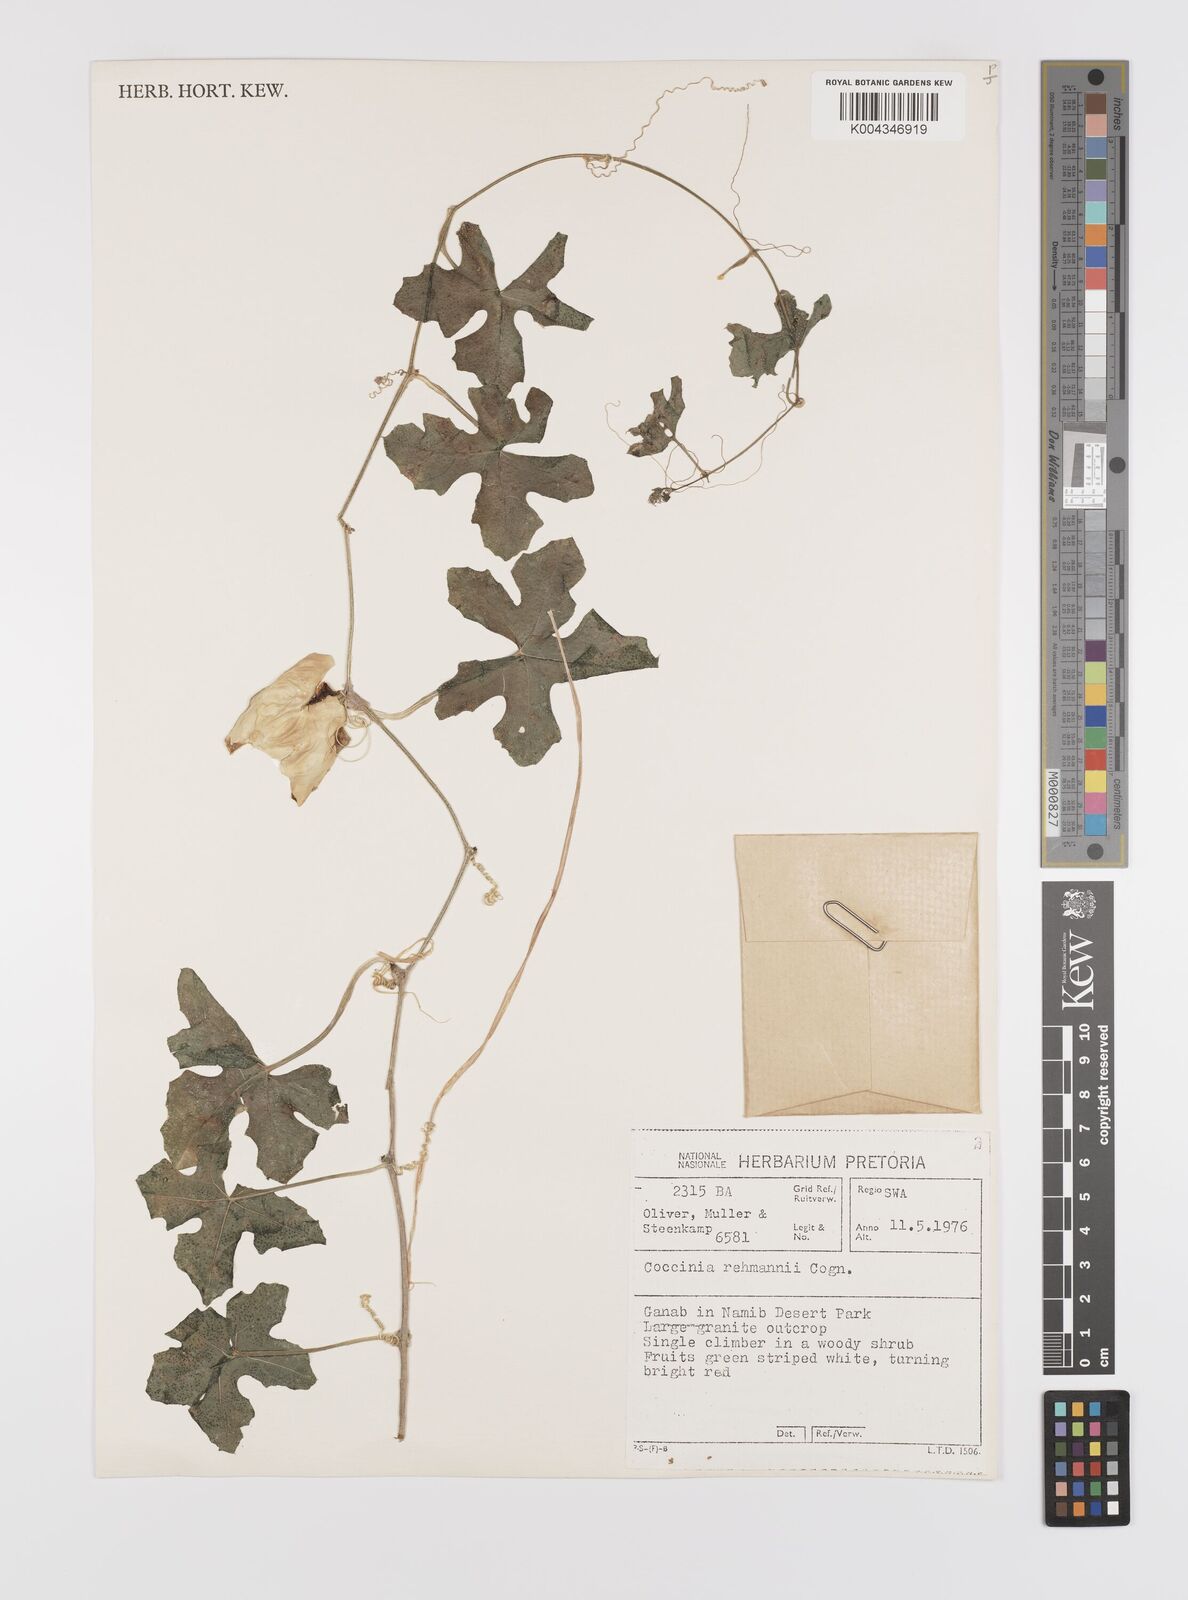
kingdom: Plantae
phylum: Tracheophyta
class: Magnoliopsida
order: Cucurbitales
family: Cucurbitaceae
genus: Coccinia
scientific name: Coccinia rehmannii
